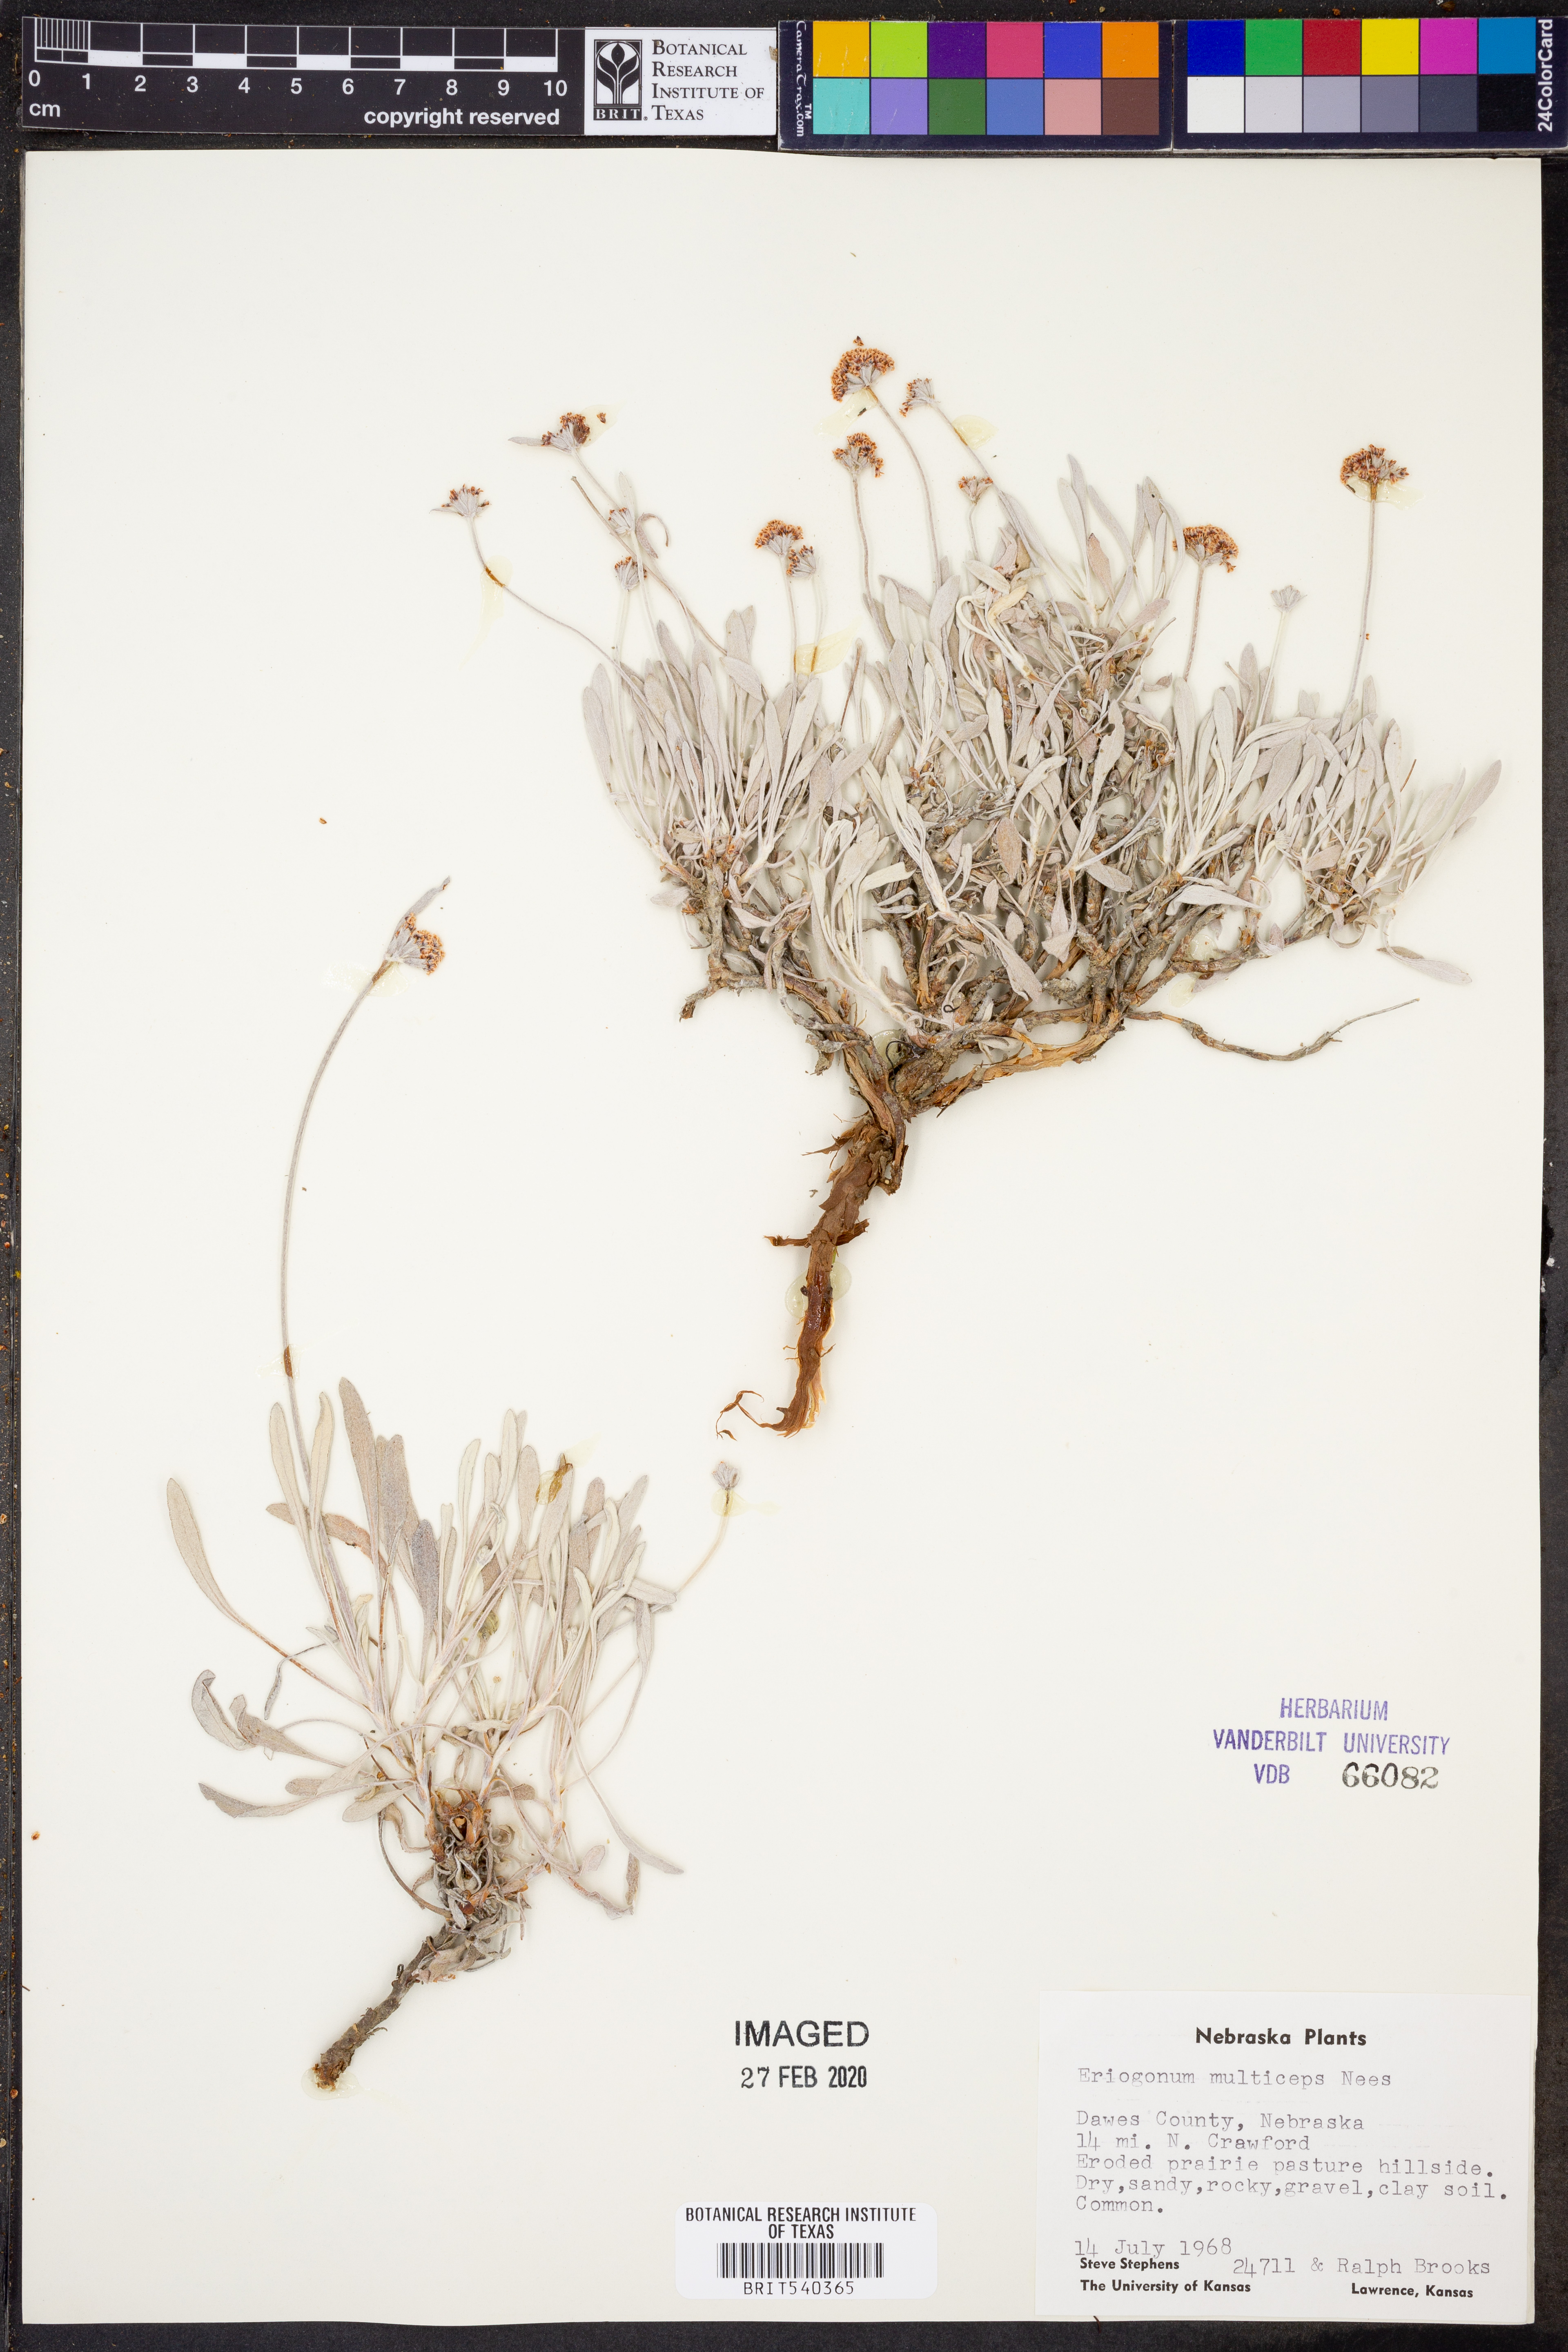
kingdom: Plantae
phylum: Tracheophyta
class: Magnoliopsida
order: Caryophyllales
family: Polygonaceae
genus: Eriogonum
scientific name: Eriogonum pauciflorum
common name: Few-flower wild buckwheat
